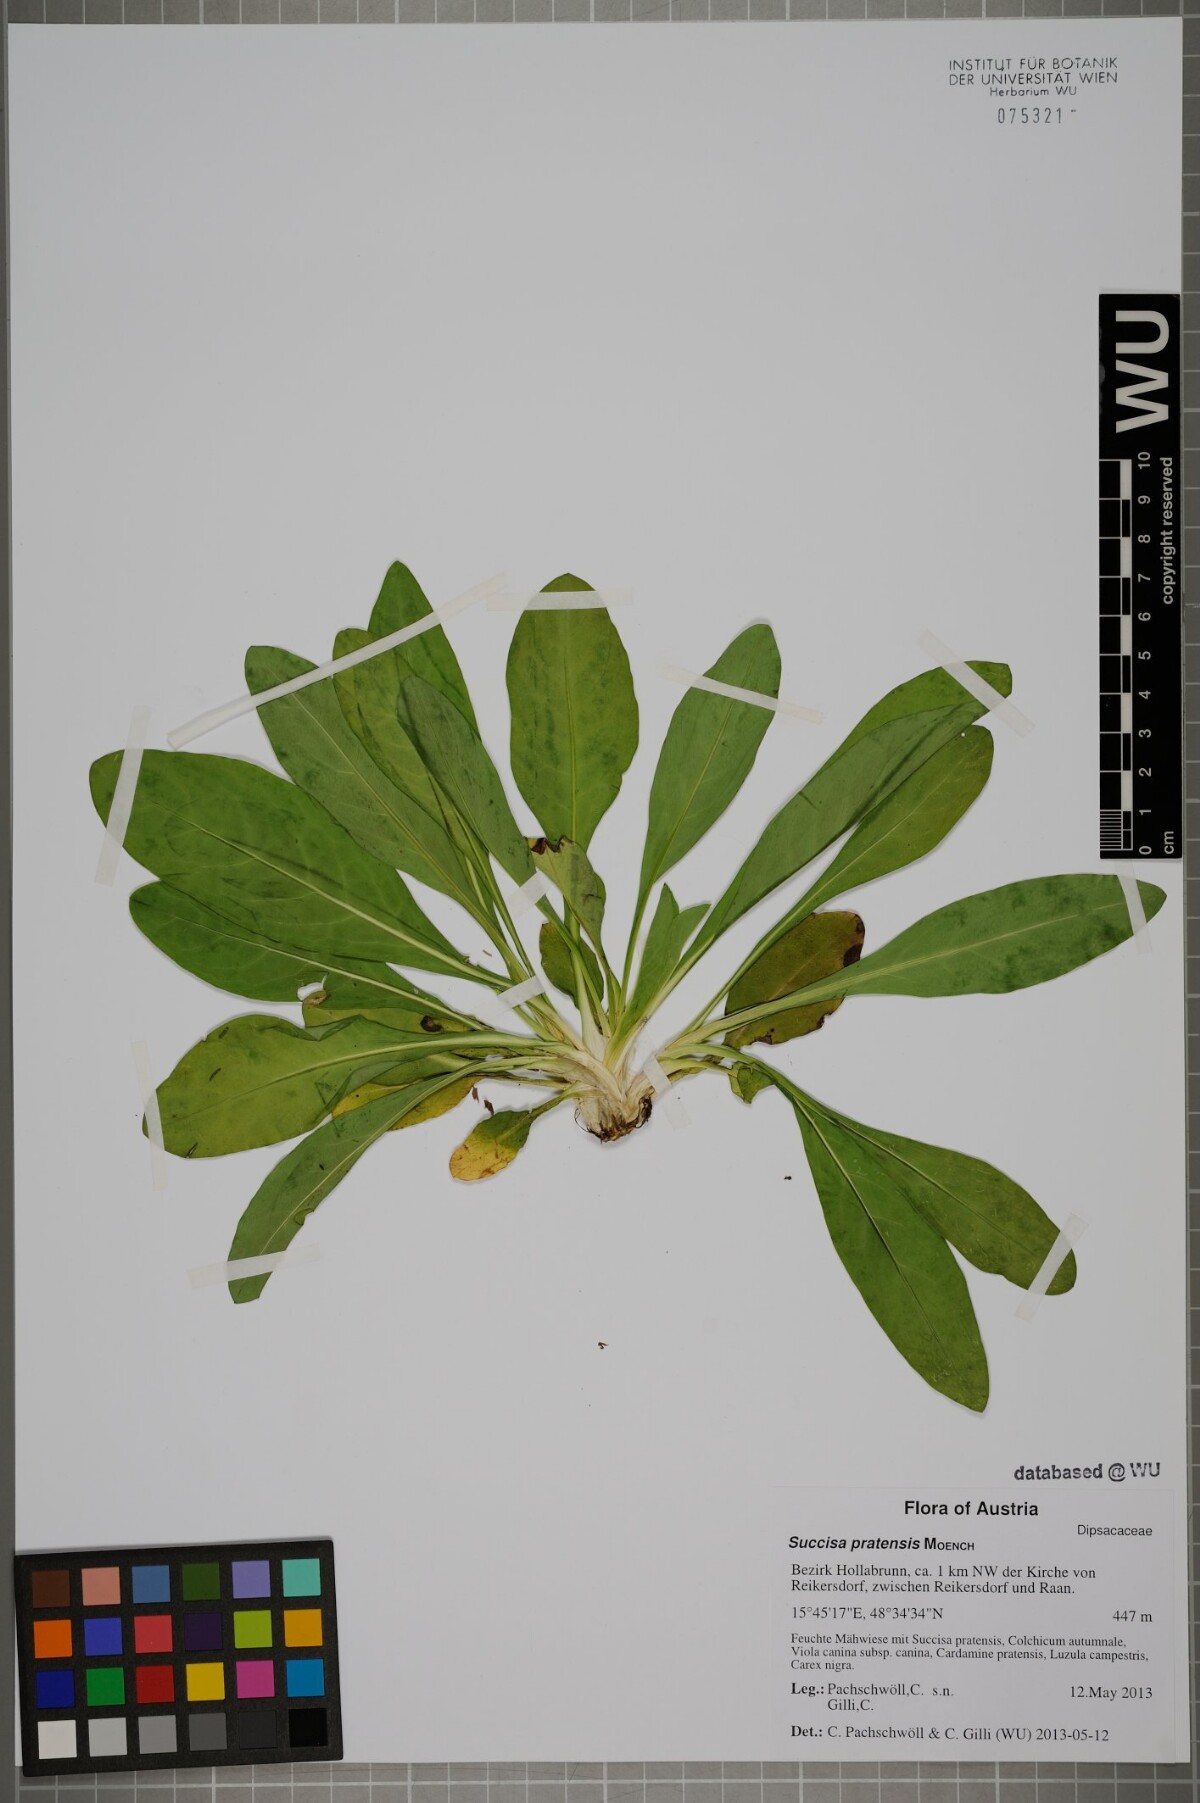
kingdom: Plantae
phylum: Tracheophyta
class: Magnoliopsida
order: Dipsacales
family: Caprifoliaceae
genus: Succisa
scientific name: Succisa pratensis
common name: Devil's-bit
